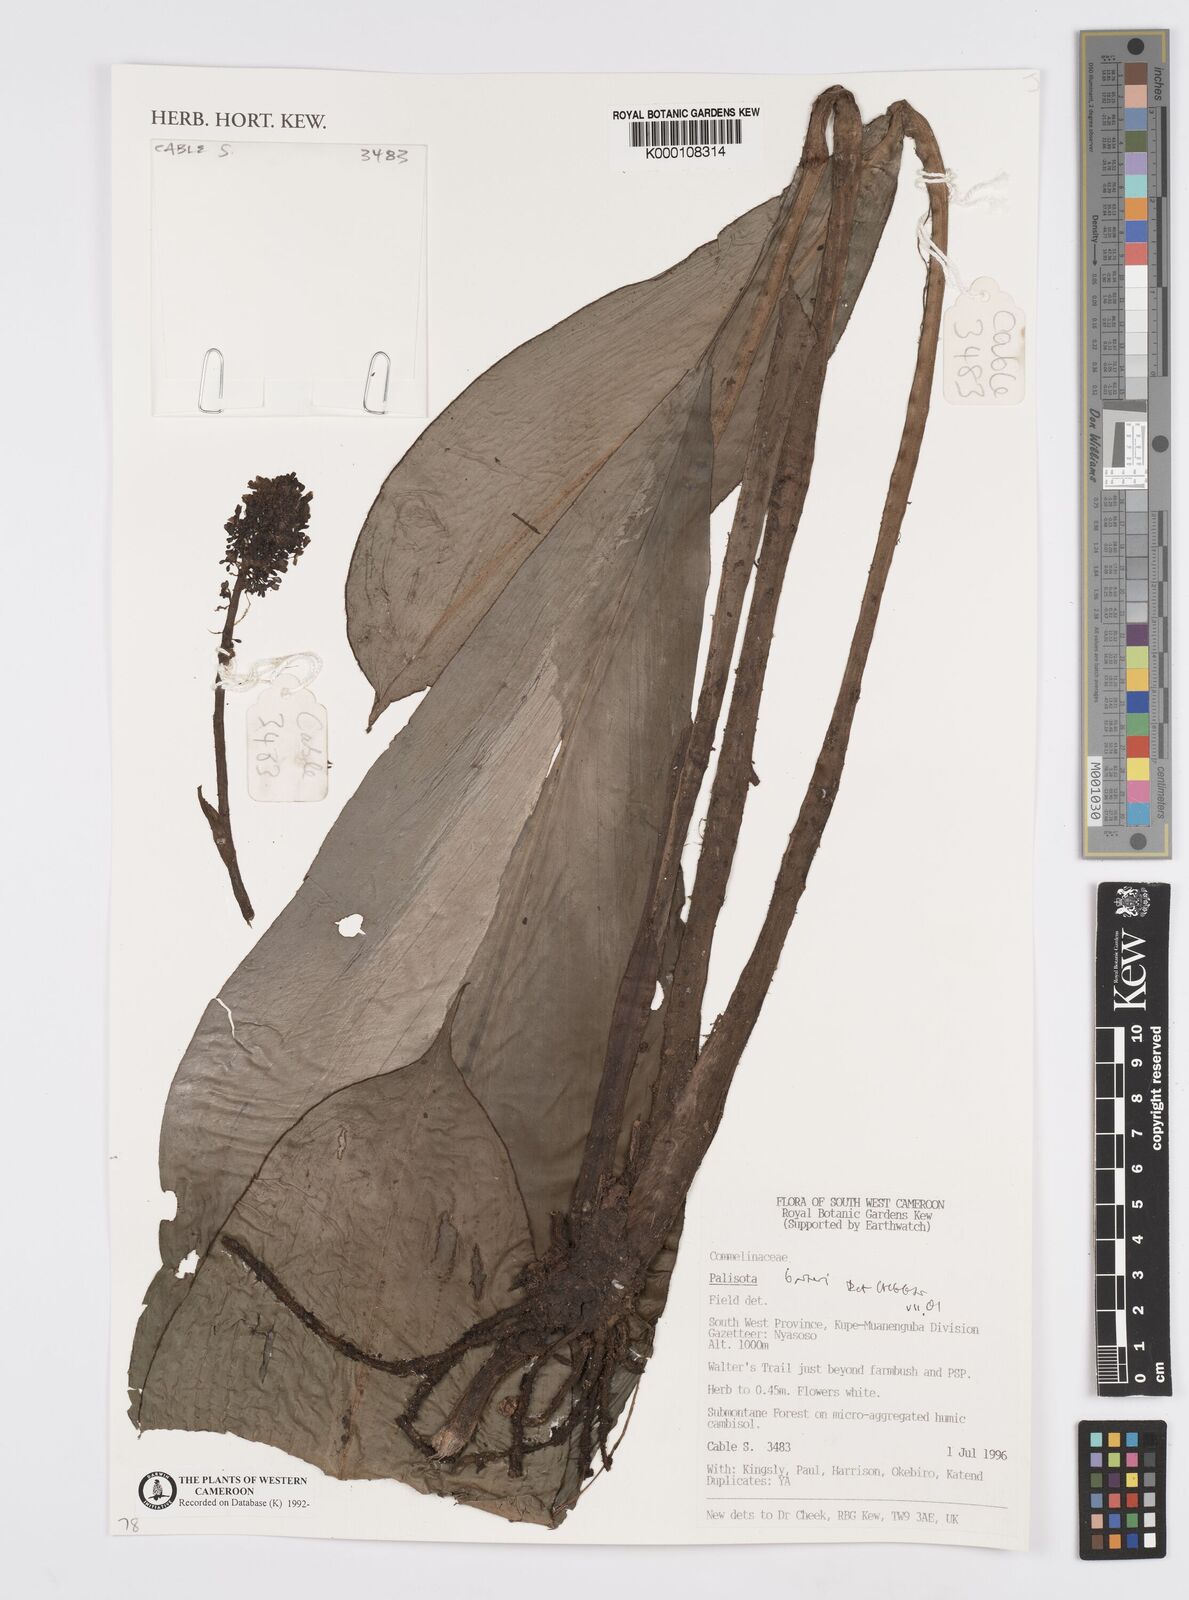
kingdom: Plantae
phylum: Tracheophyta
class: Liliopsida
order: Commelinales
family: Commelinaceae
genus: Palisota
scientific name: Palisota barteri
